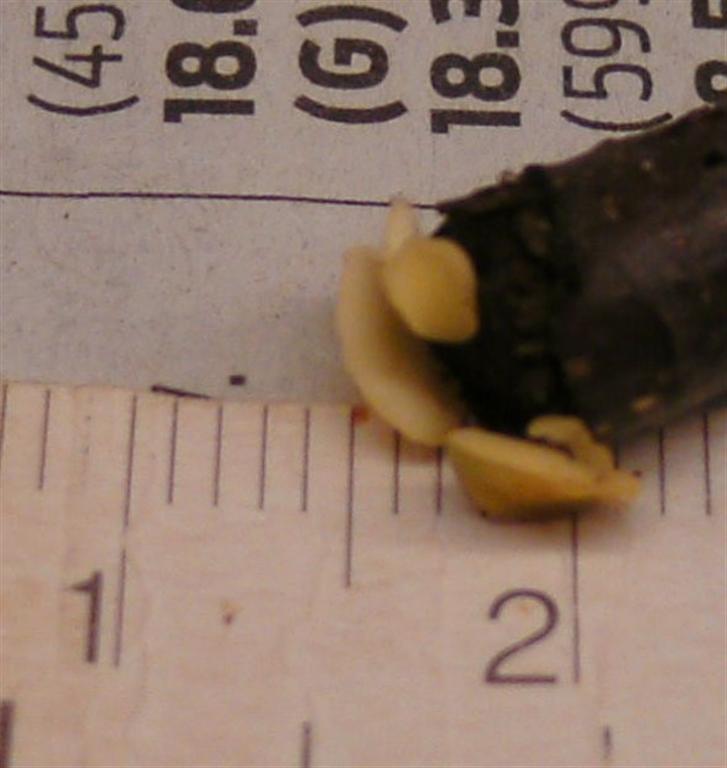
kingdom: Fungi
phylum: Ascomycota
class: Leotiomycetes
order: Helotiales
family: Helotiaceae
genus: Hymenoscyphus
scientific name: Hymenoscyphus serotinus
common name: krumsporet stilkskive
